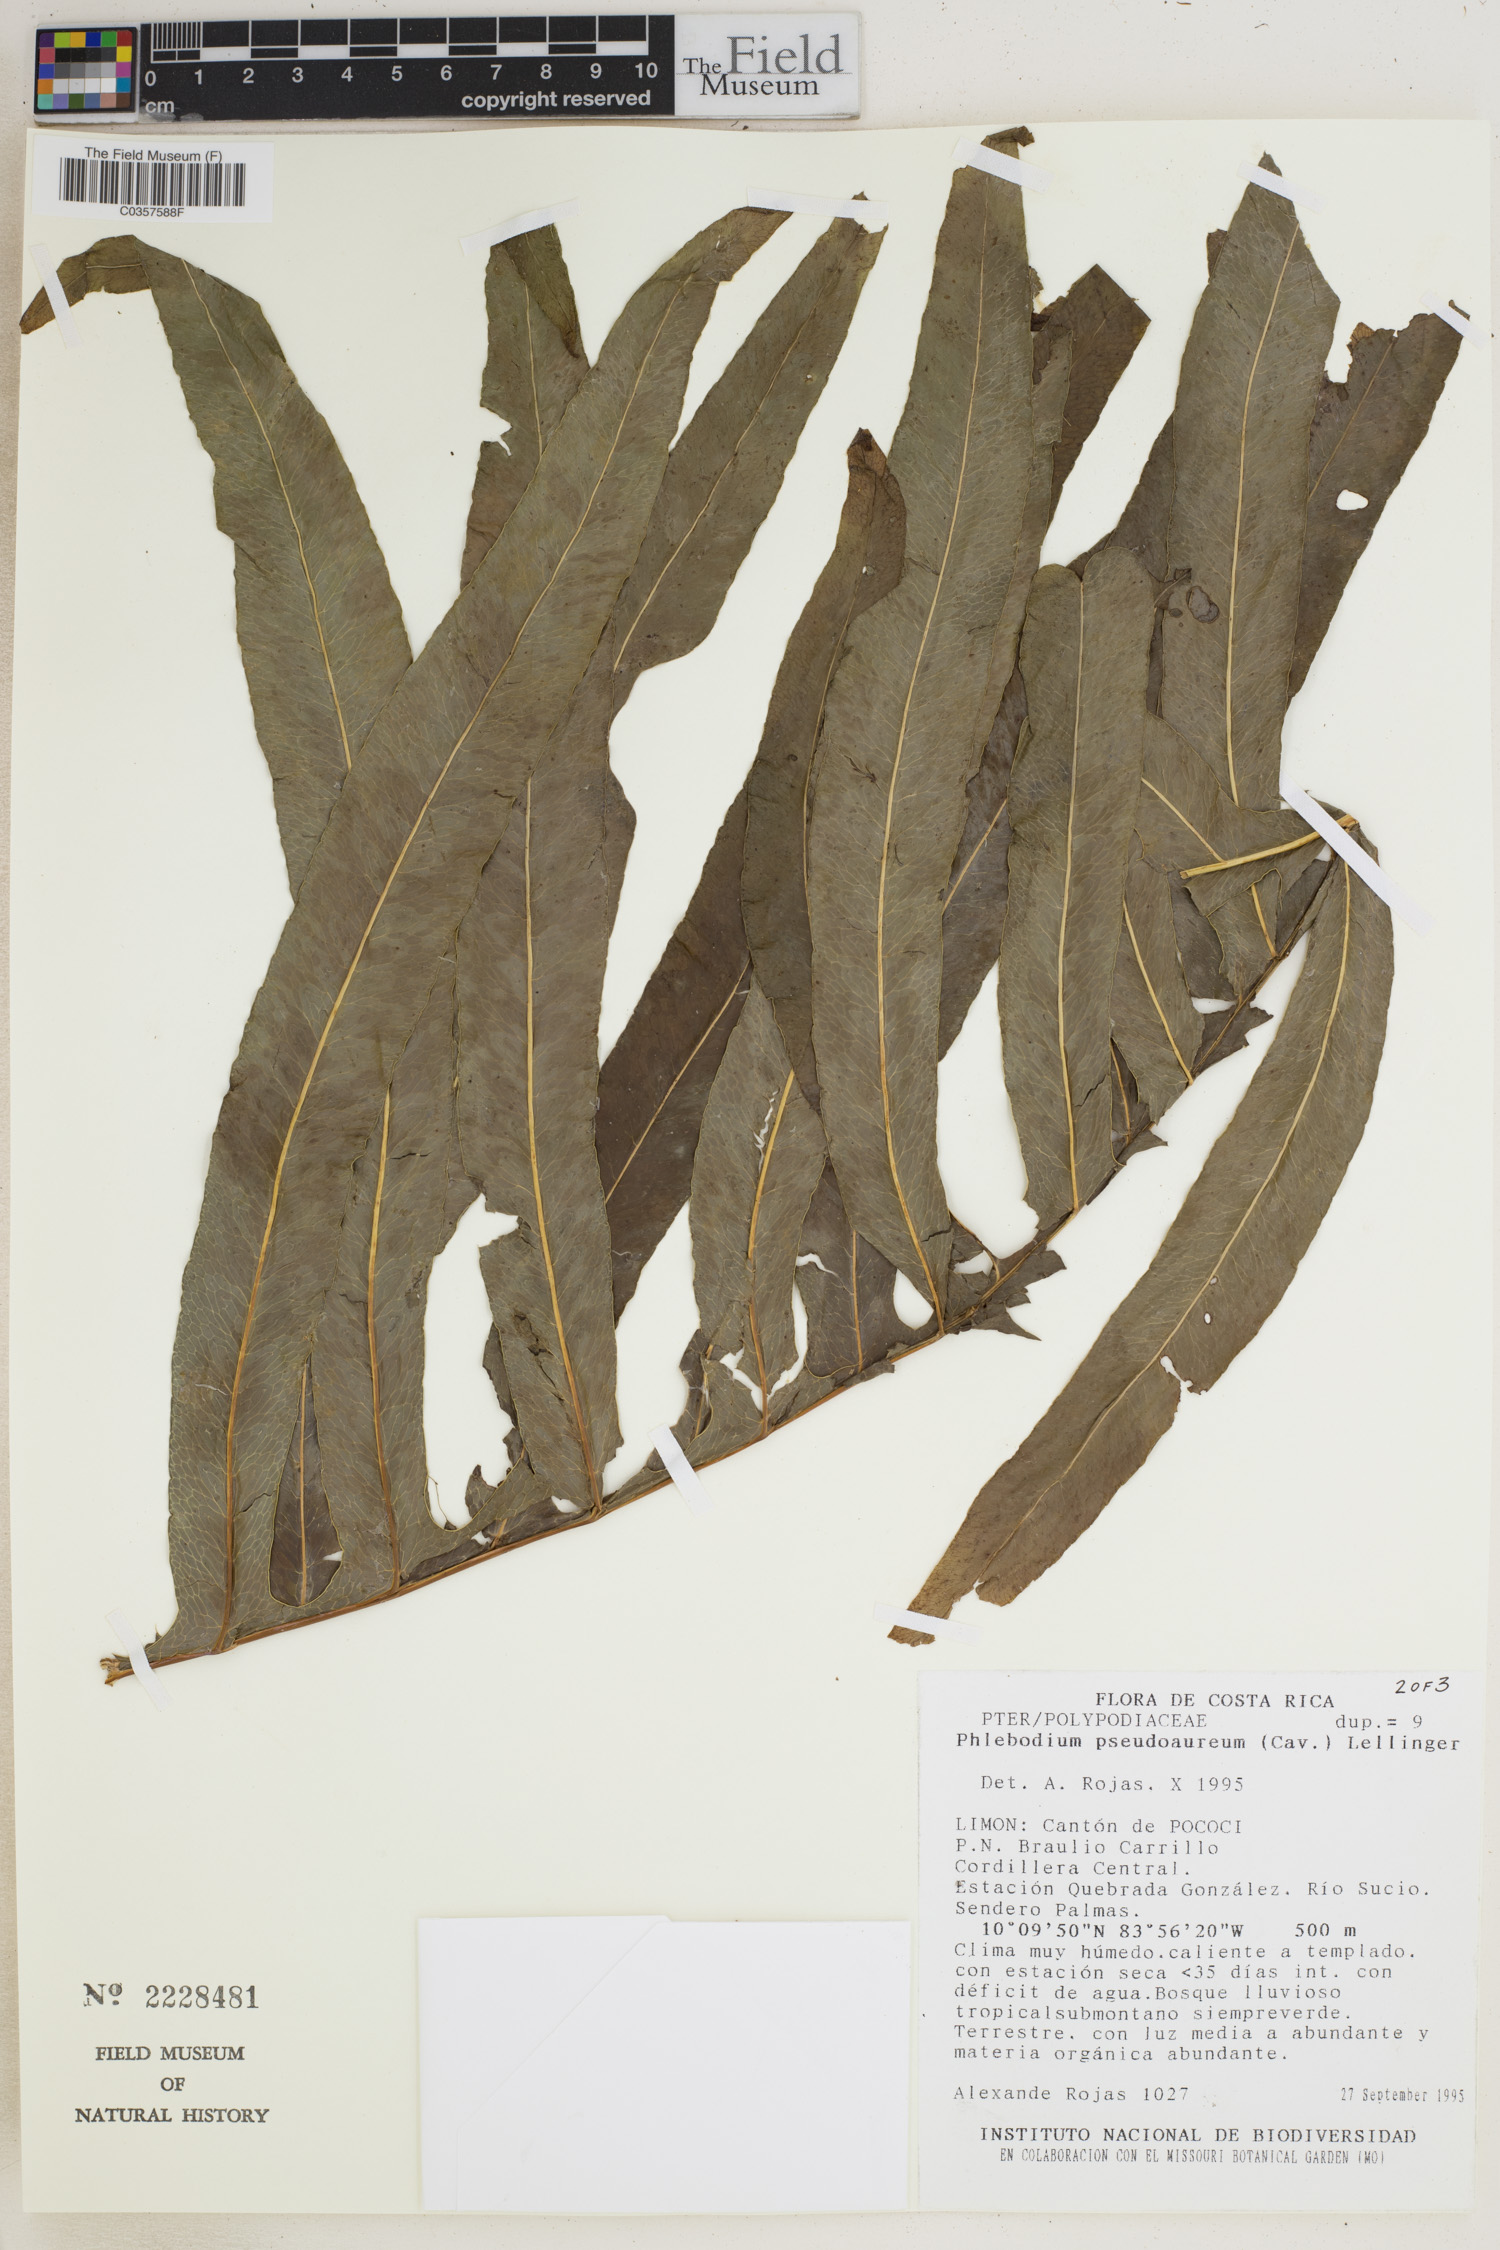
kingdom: Plantae
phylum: Tracheophyta
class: Polypodiopsida
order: Polypodiales
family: Polypodiaceae
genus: Phlebodium
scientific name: Phlebodium pseudoaureum
